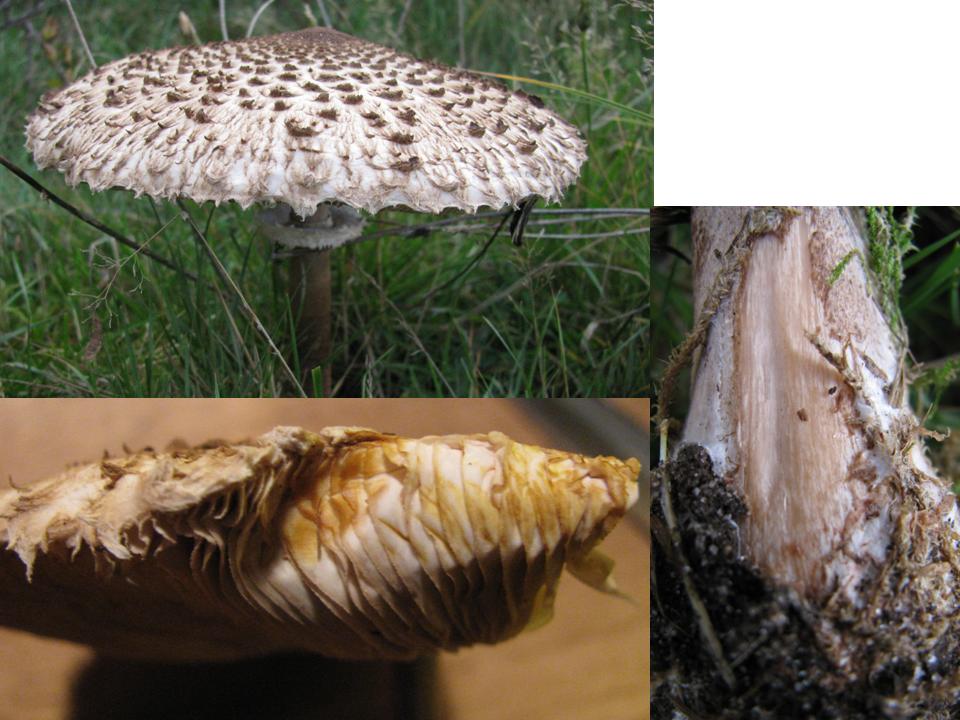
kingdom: Fungi
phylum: Basidiomycota
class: Agaricomycetes
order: Agaricales
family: Agaricaceae
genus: Macrolepiota
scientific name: Macrolepiota
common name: kæmpeparasolhat
